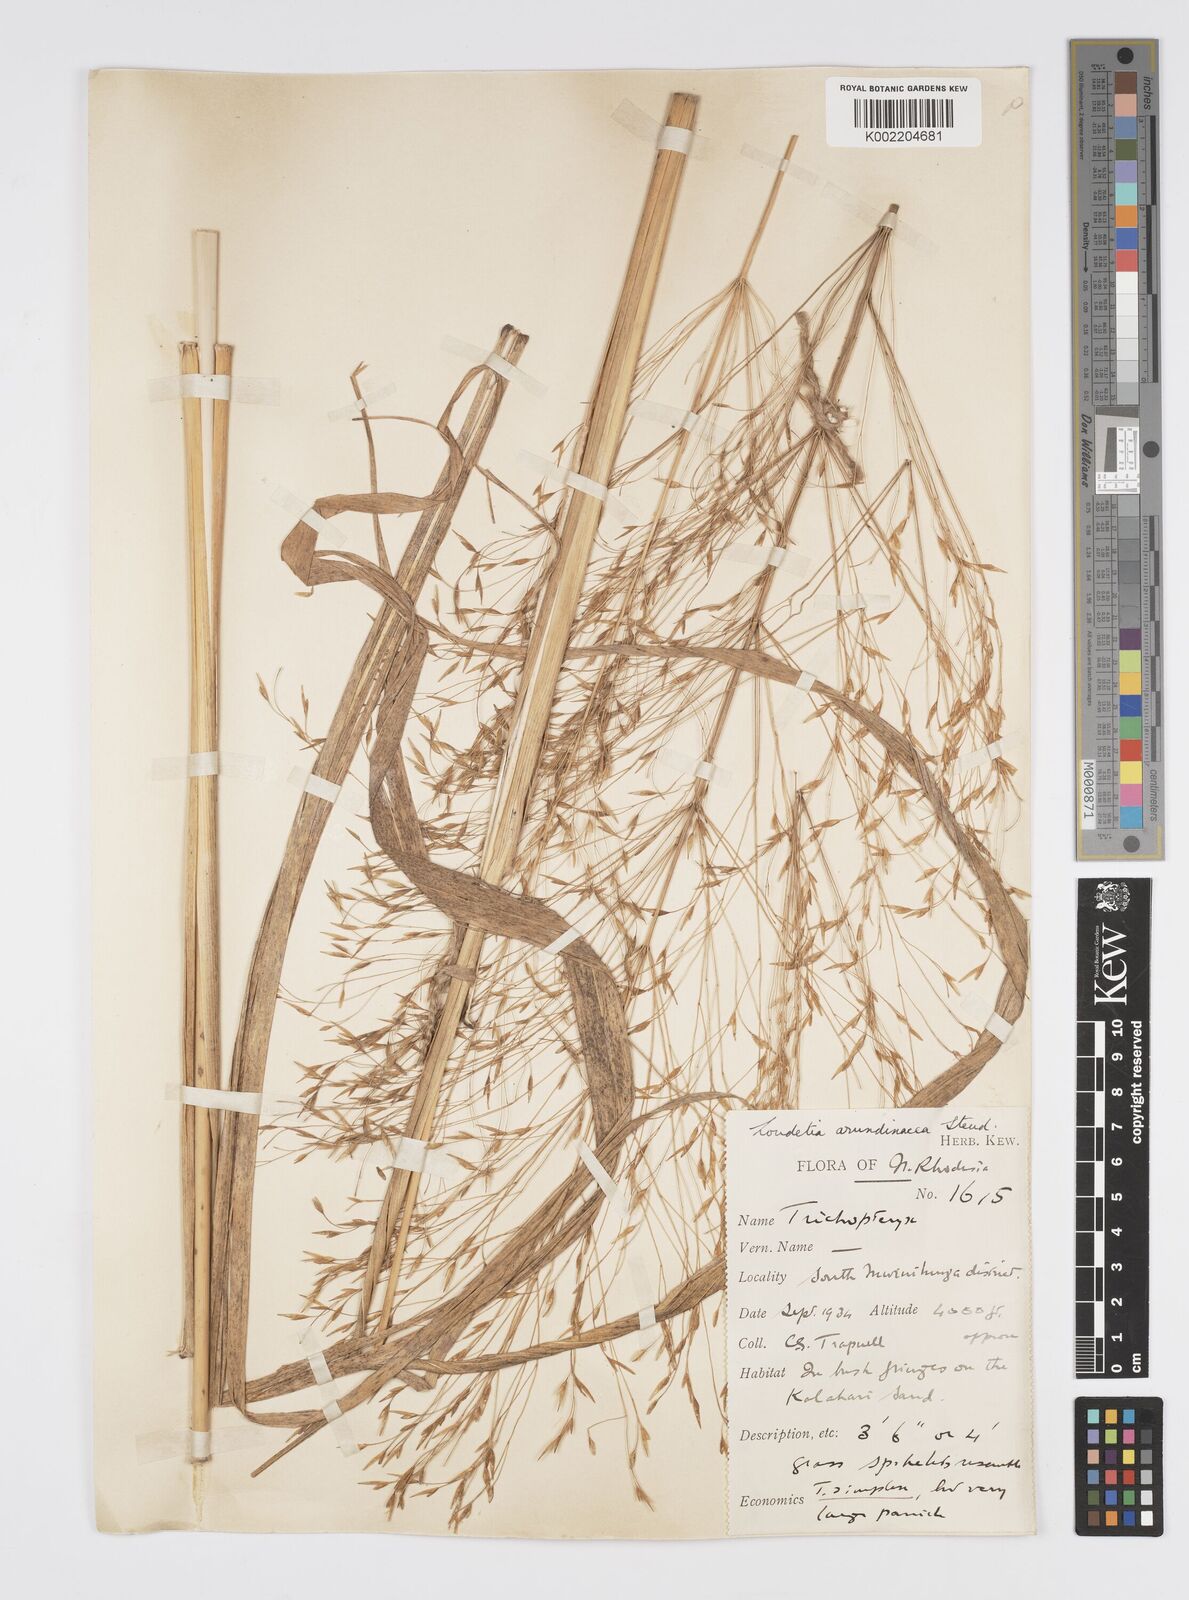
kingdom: Plantae
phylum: Tracheophyta
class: Liliopsida
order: Poales
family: Poaceae
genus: Loudetia
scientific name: Loudetia arundinacea
